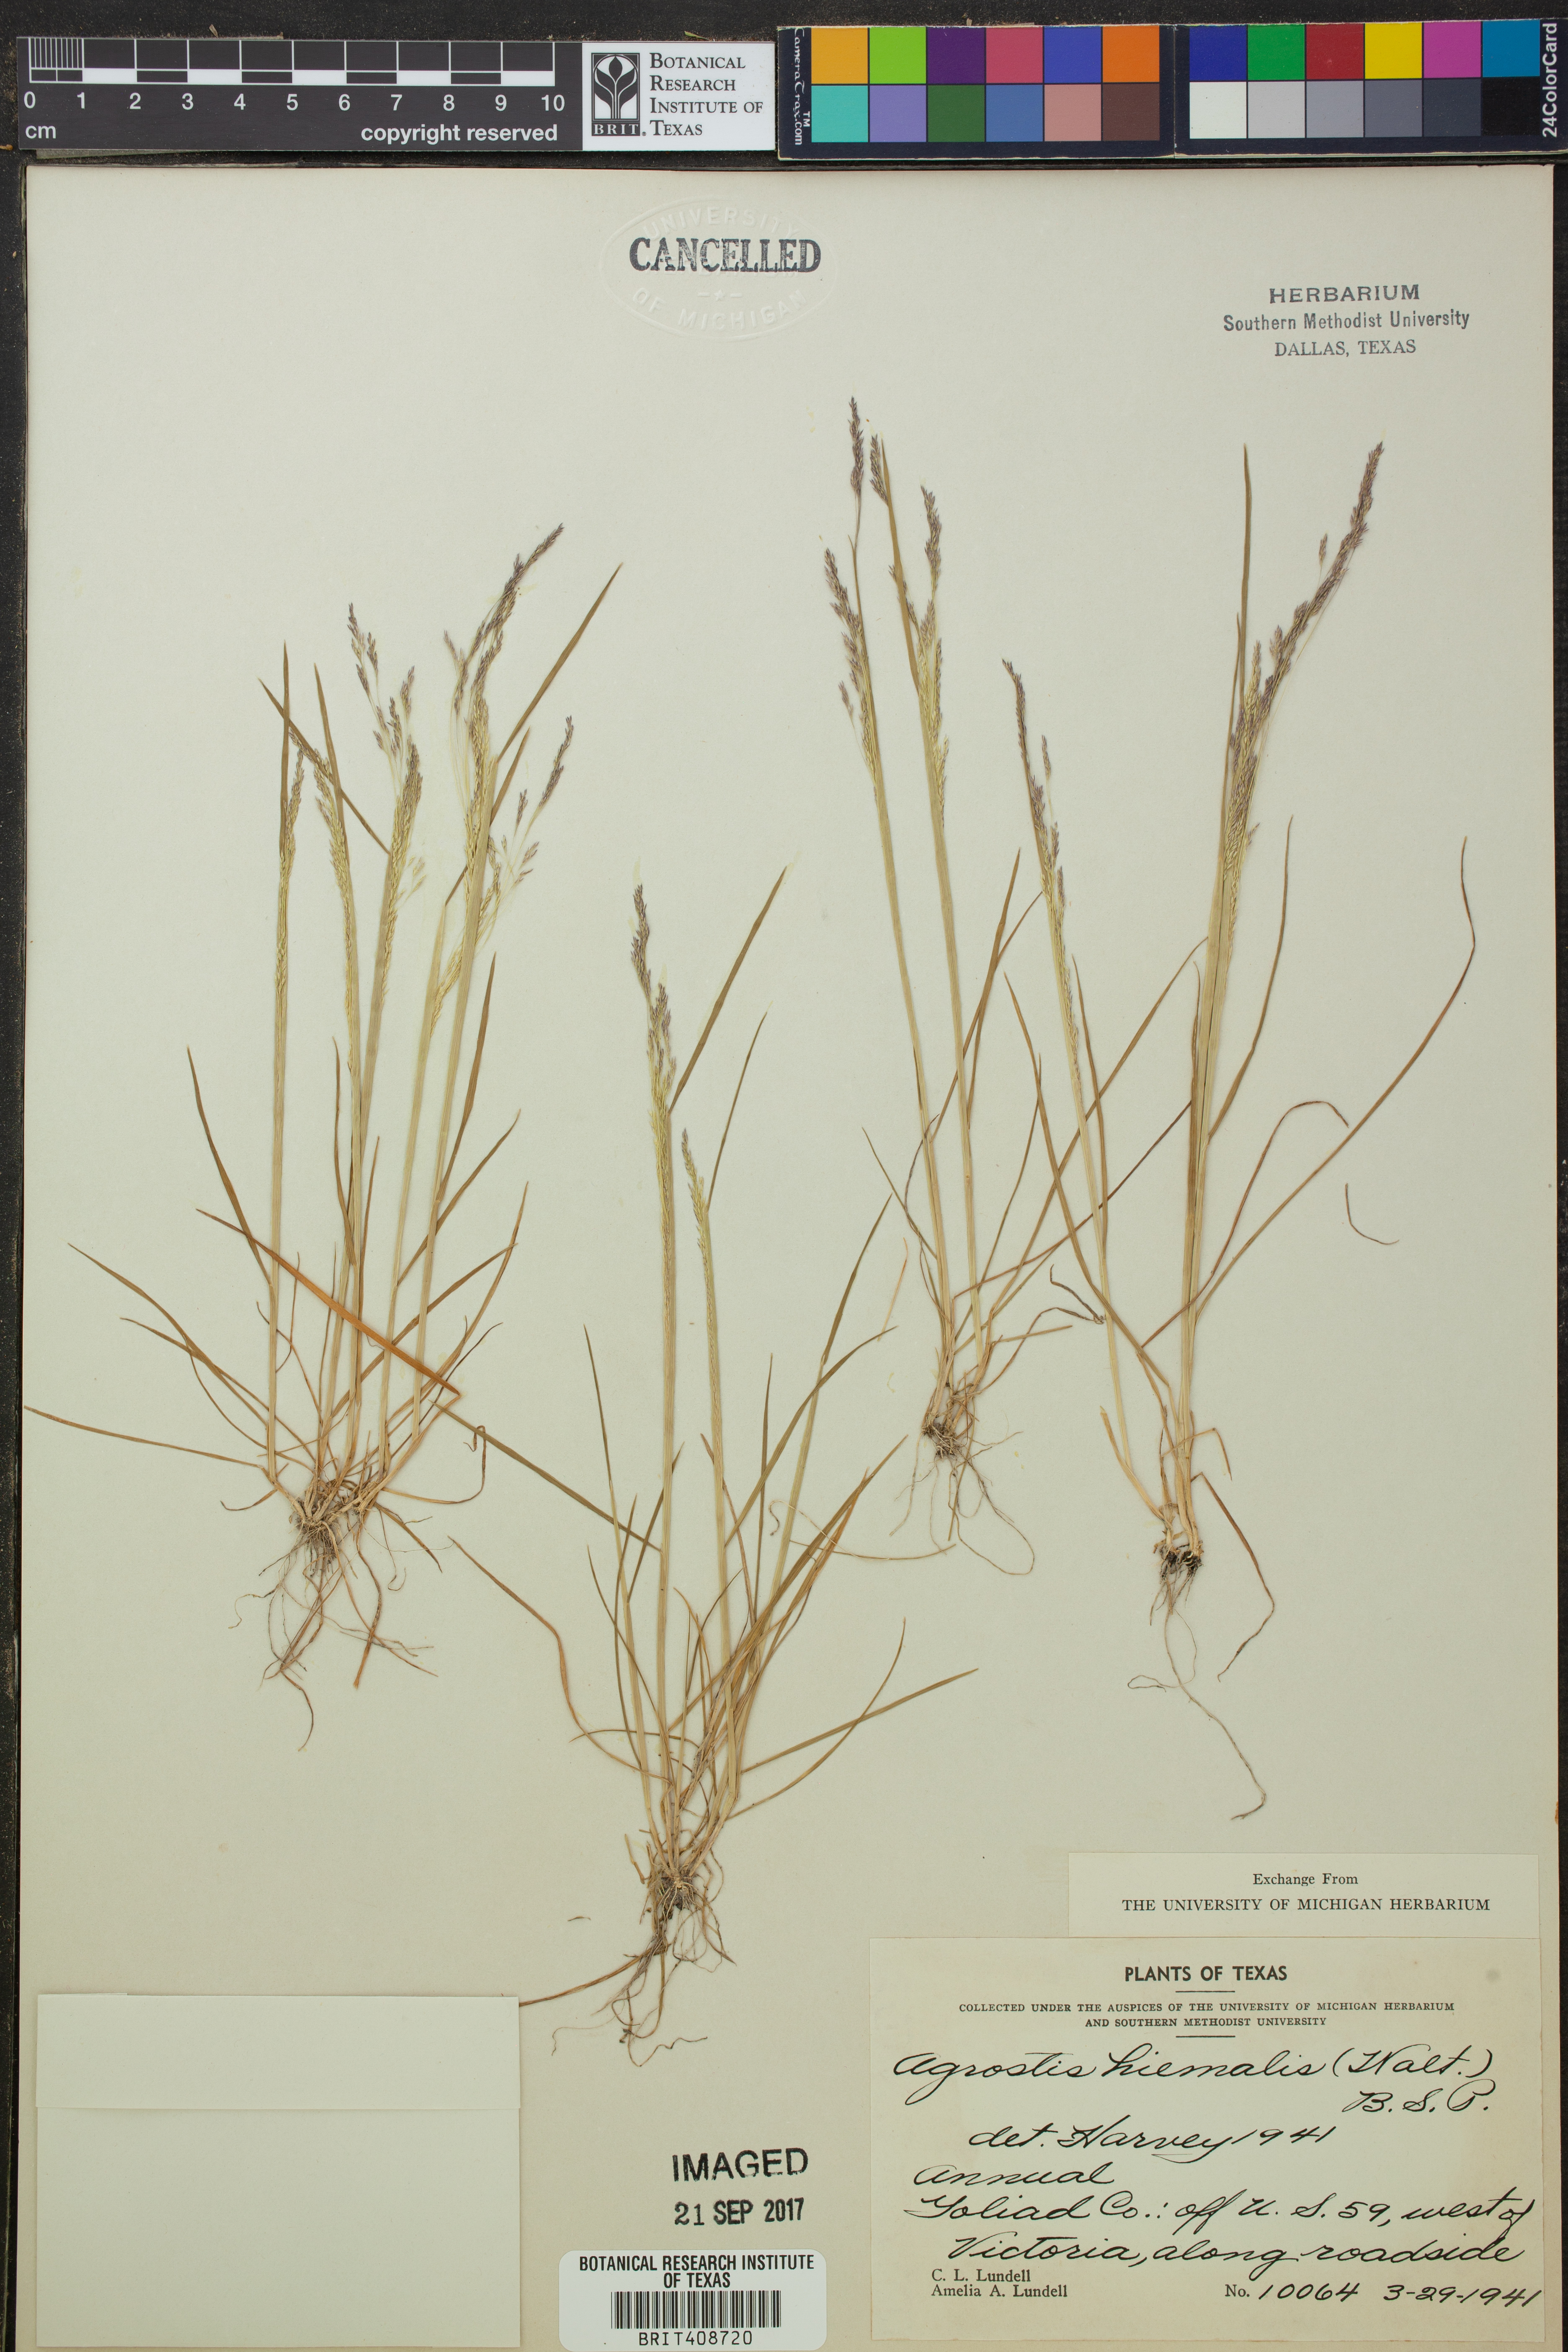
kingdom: Plantae
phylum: Tracheophyta
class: Liliopsida
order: Poales
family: Poaceae
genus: Agrostis
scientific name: Agrostis hyemalis
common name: Small bent
